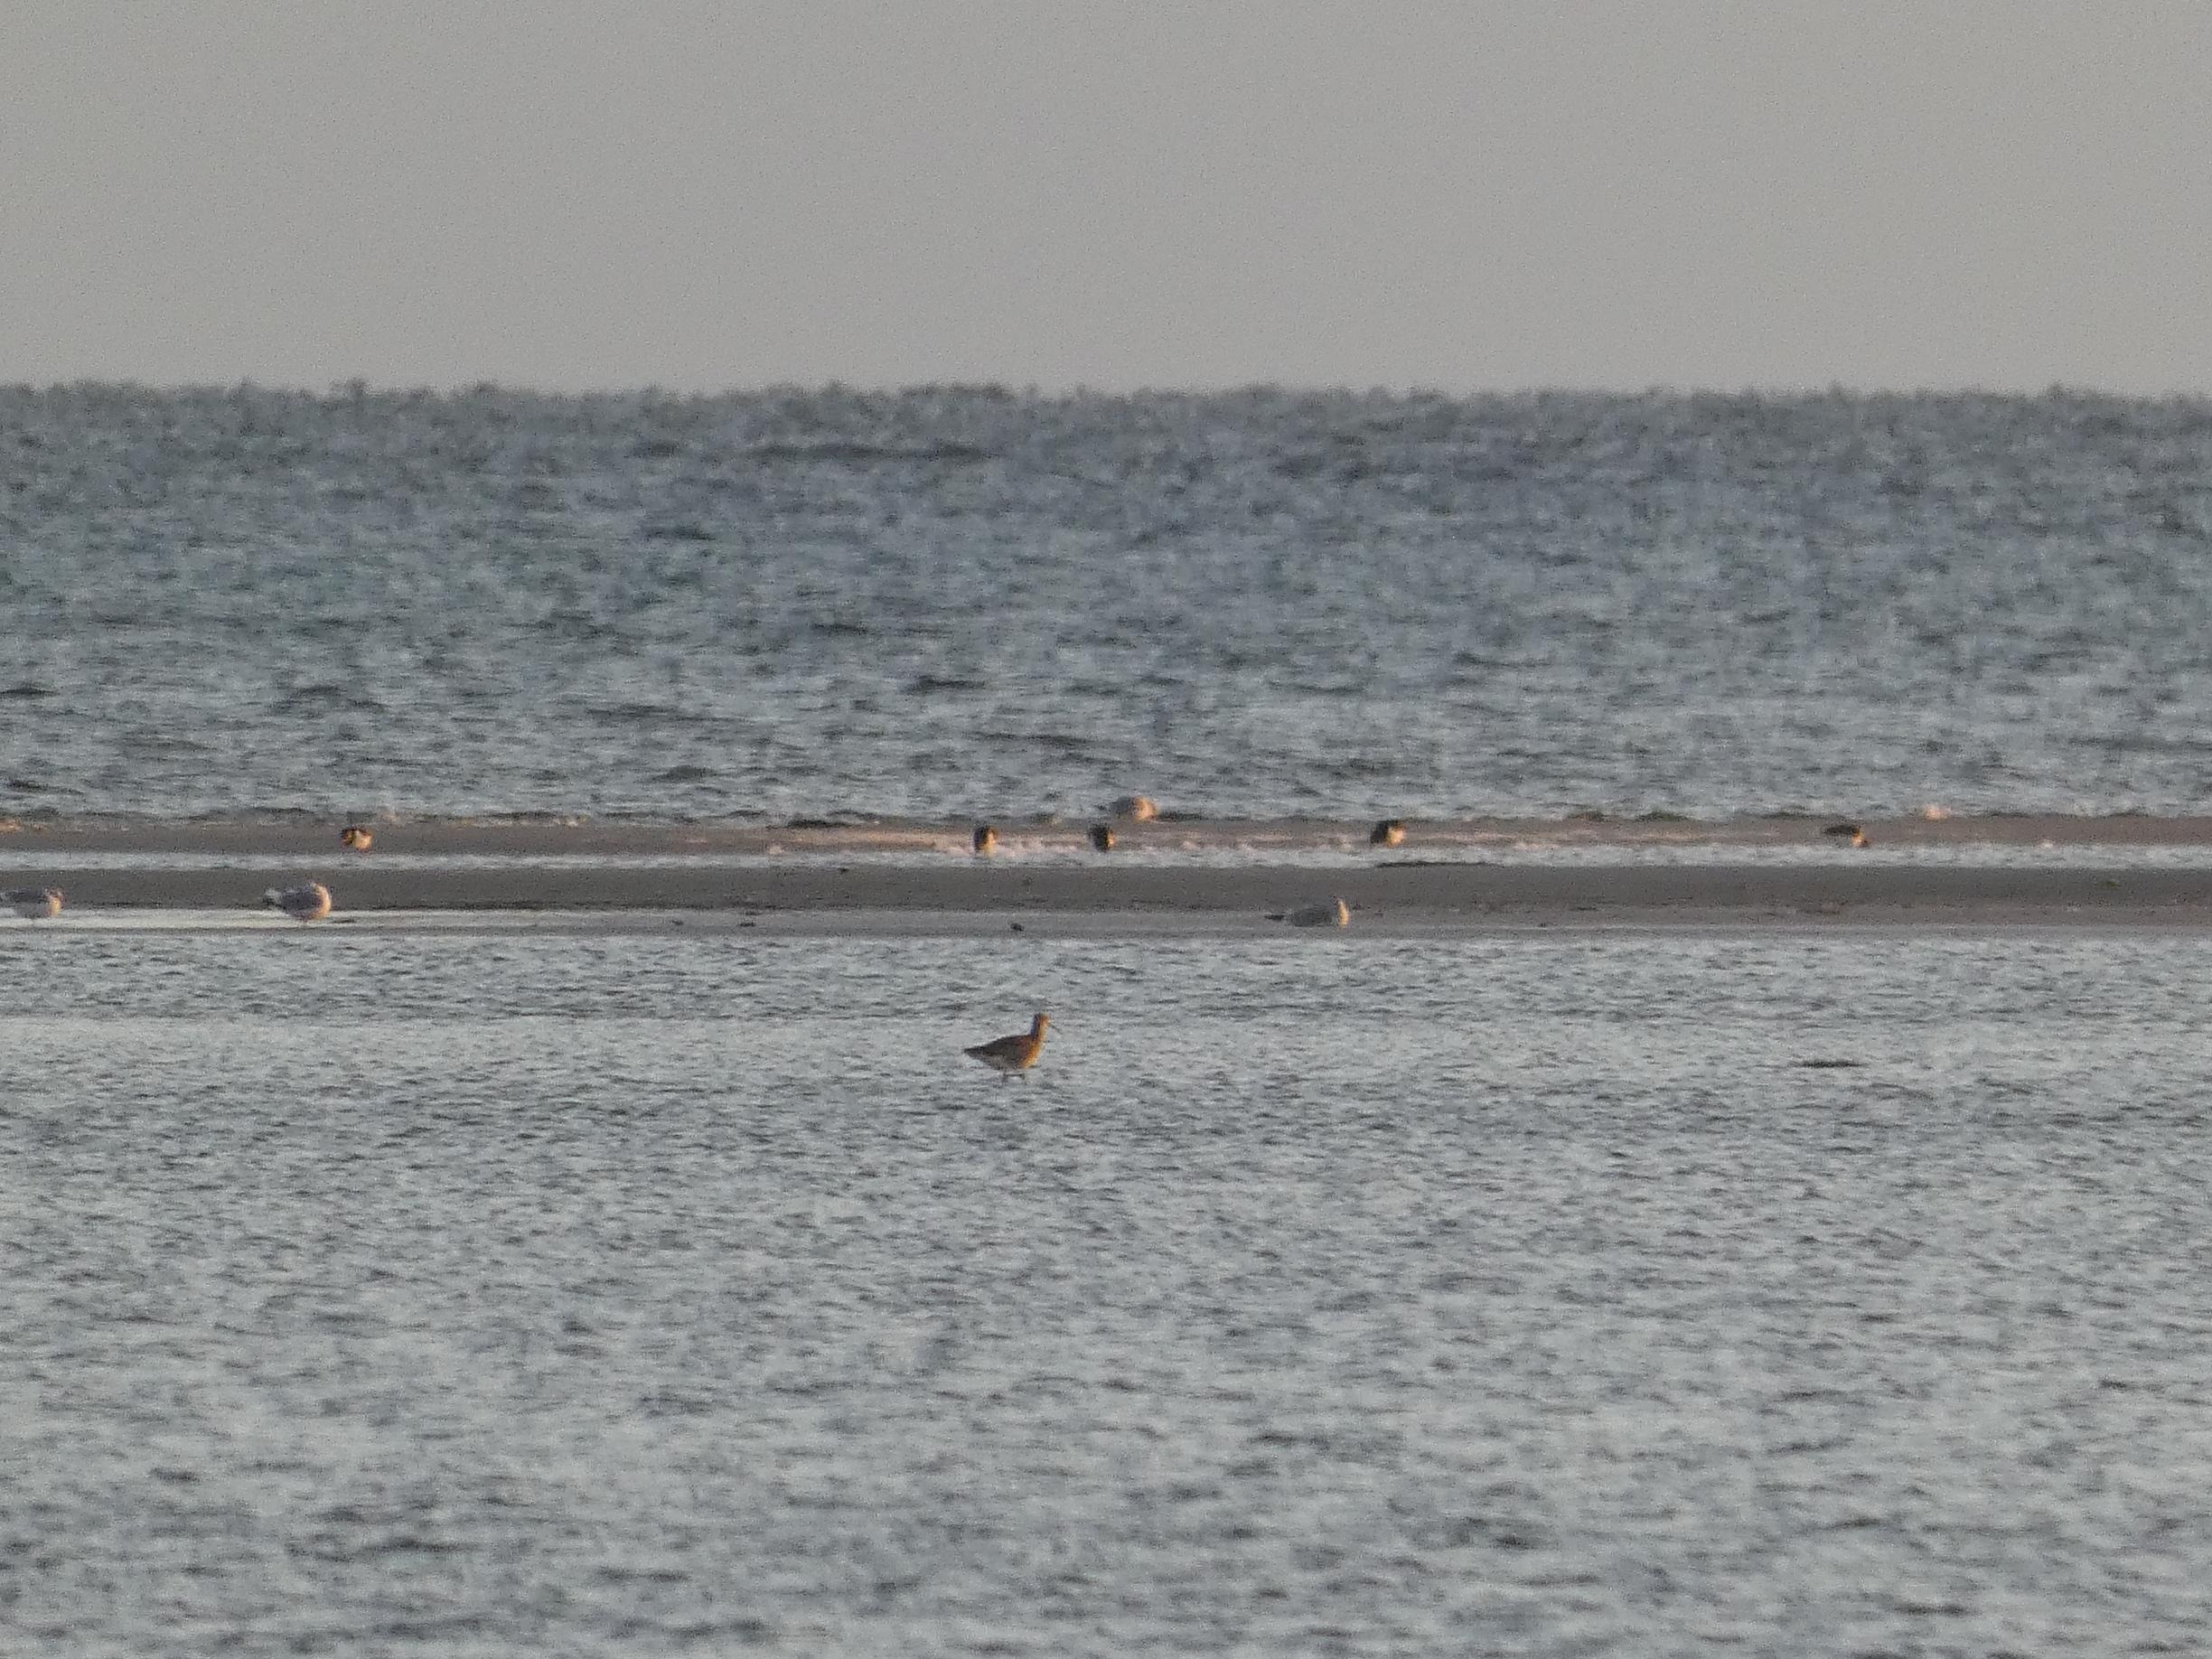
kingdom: Animalia
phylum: Chordata
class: Aves
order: Charadriiformes
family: Scolopacidae
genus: Numenius
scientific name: Numenius arquata
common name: Storspove
